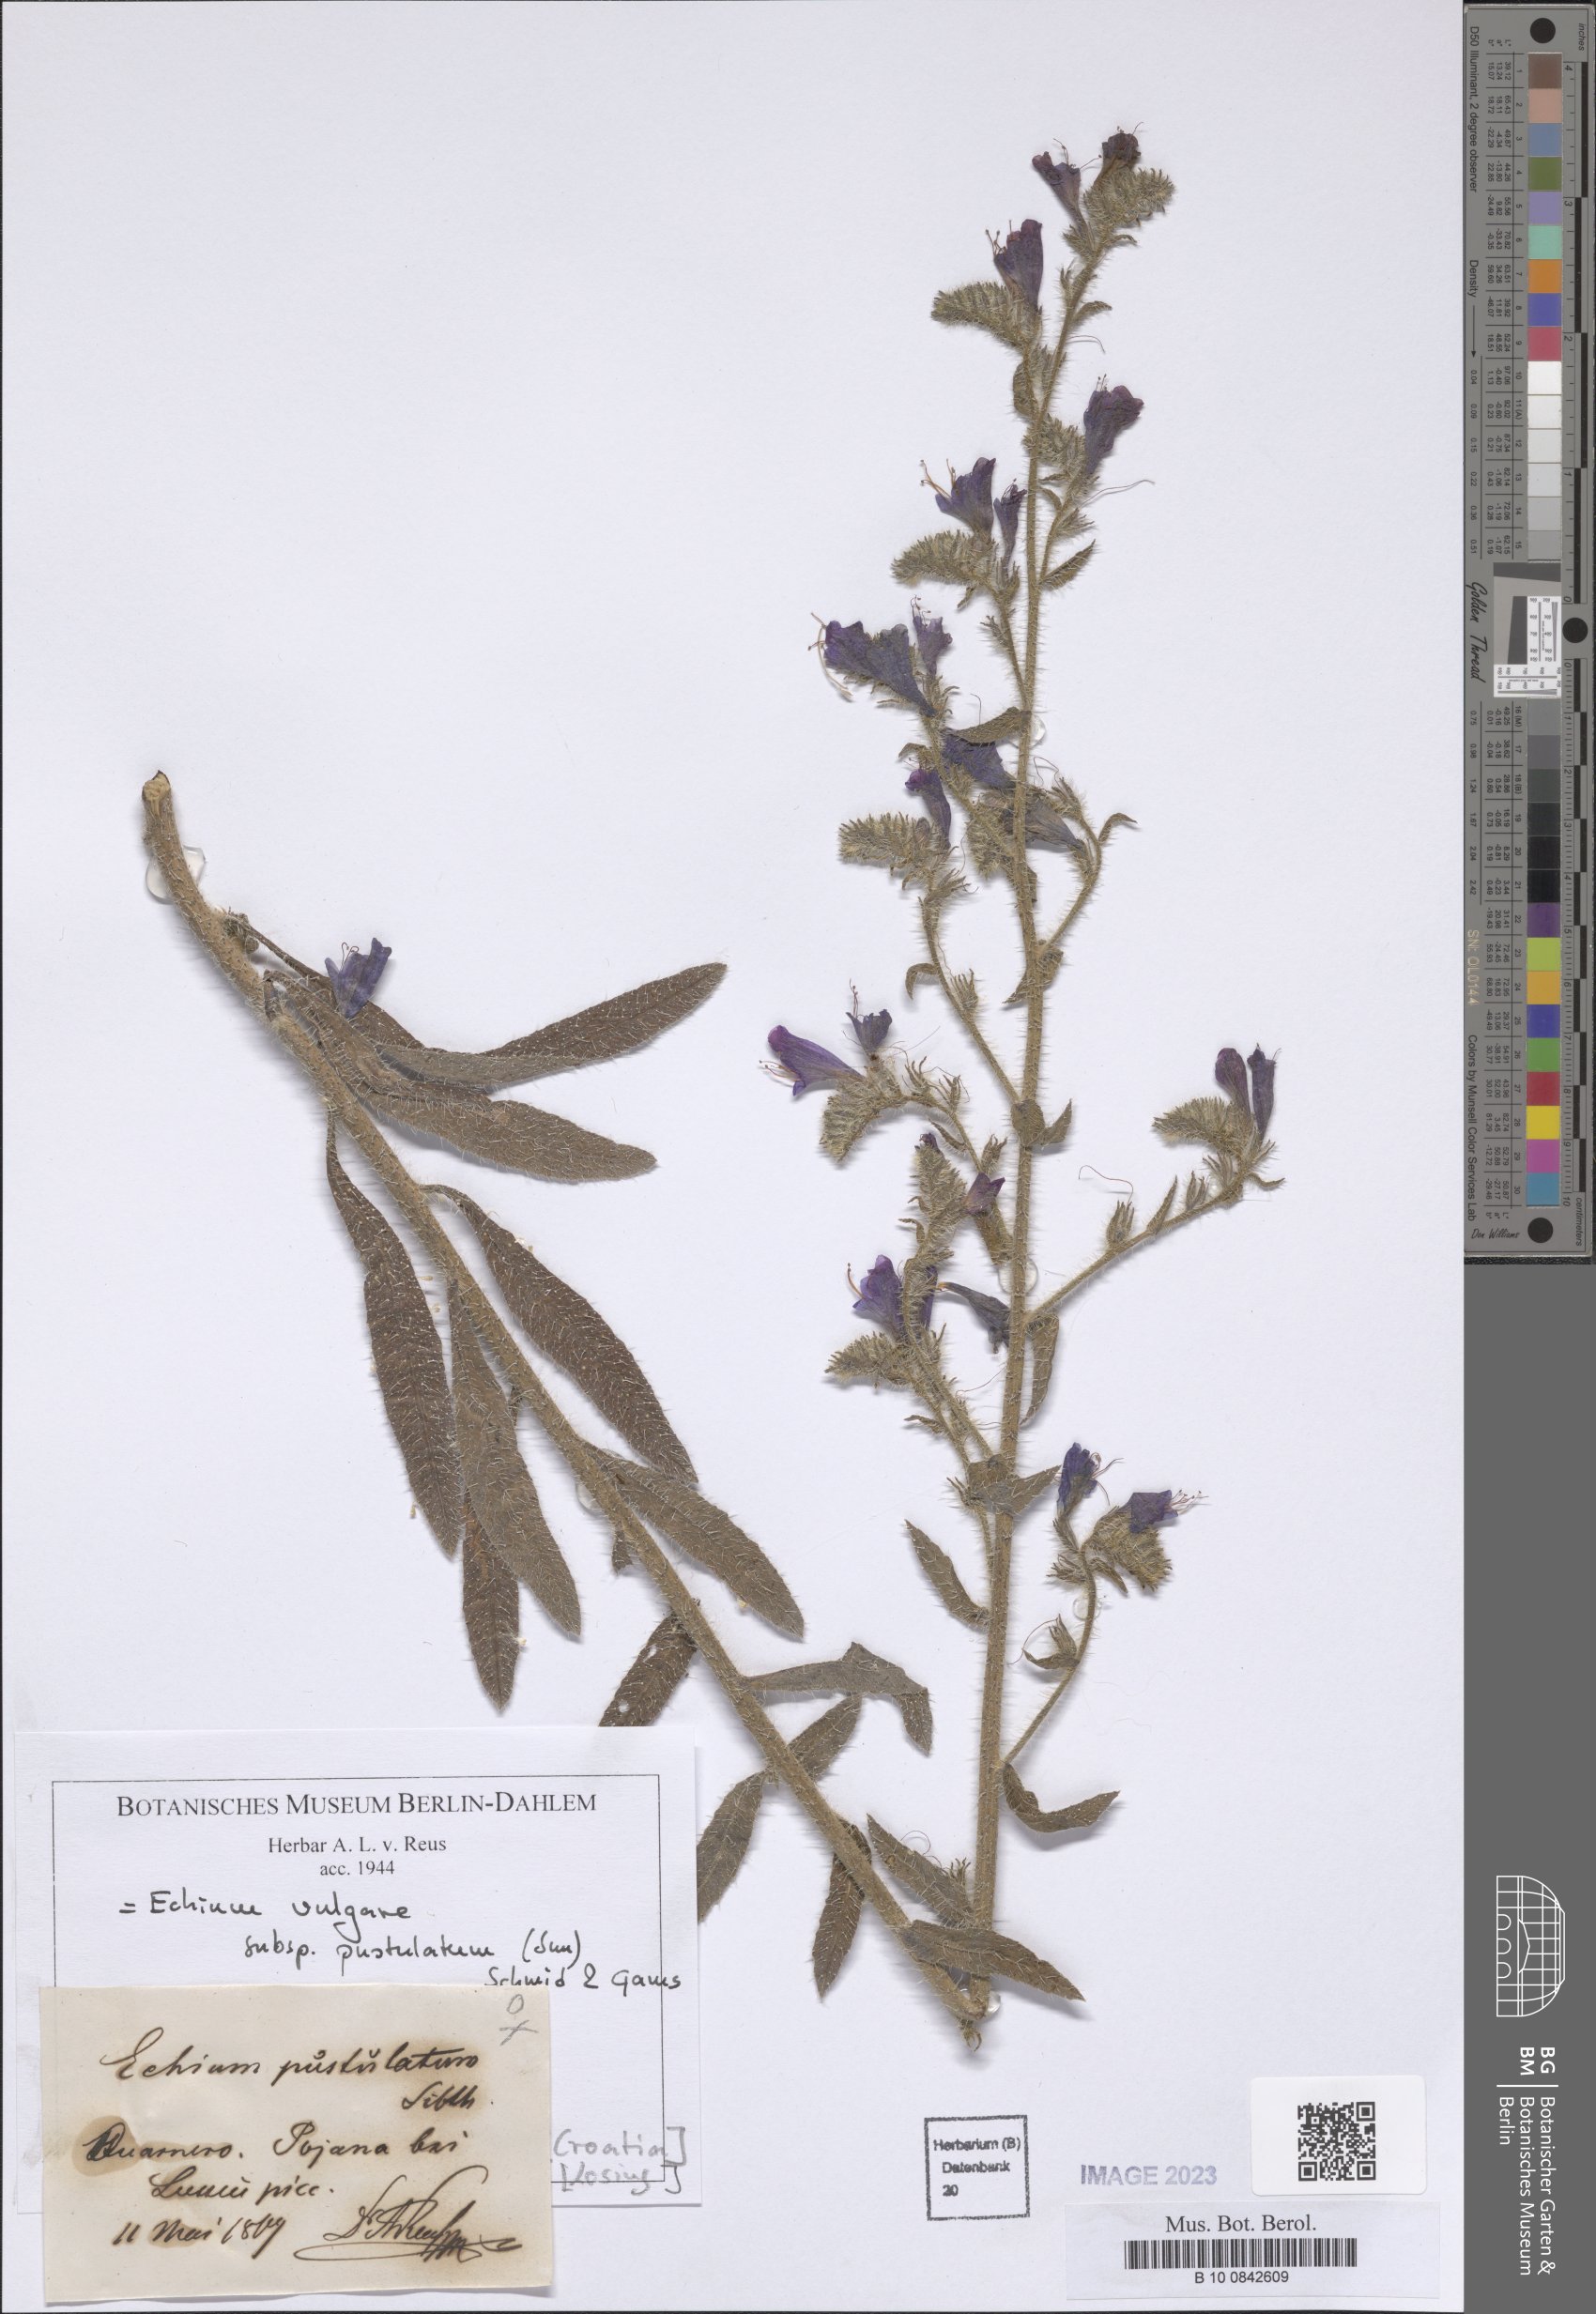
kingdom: Plantae
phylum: Tracheophyta
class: Magnoliopsida
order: Boraginales
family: Boraginaceae
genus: Echium
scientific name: Echium vulgare
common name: Common viper's bugloss
